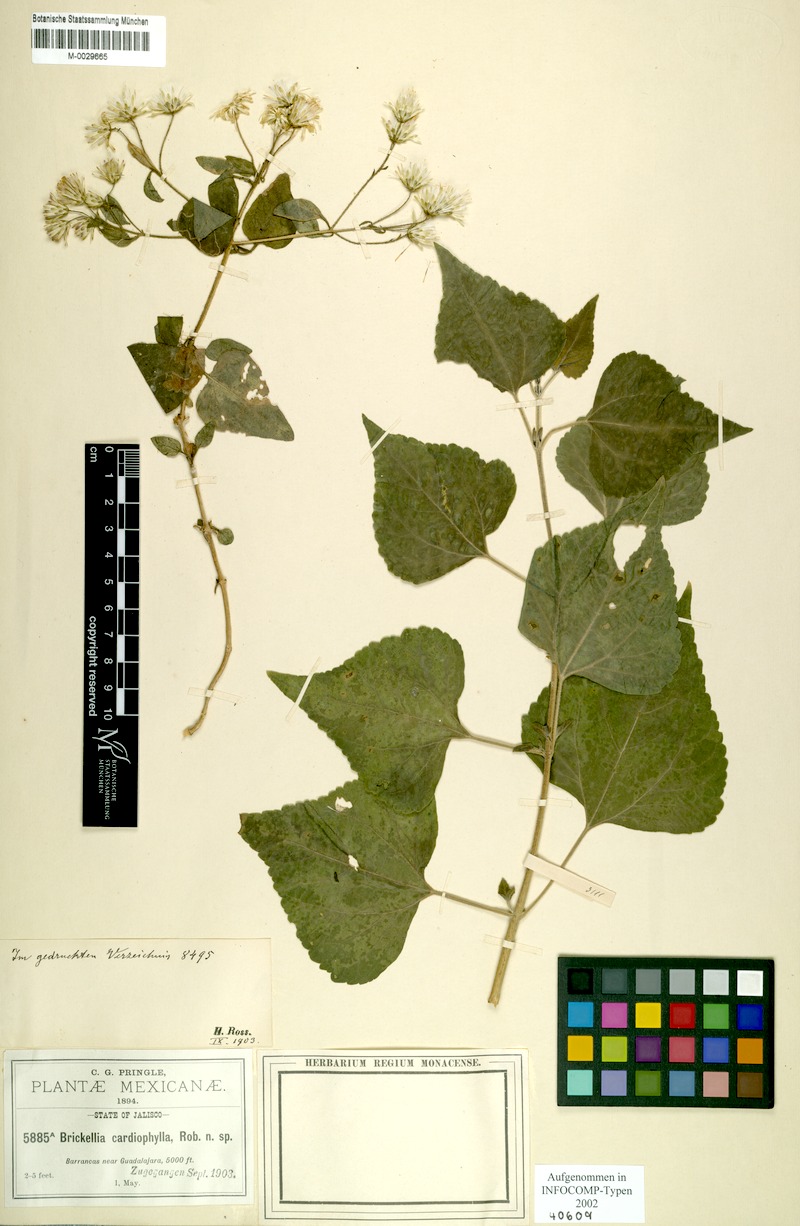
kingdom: Plantae
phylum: Tracheophyta
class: Magnoliopsida
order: Asterales
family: Asteraceae
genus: Brickellia
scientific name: Brickellia cardiophylla
